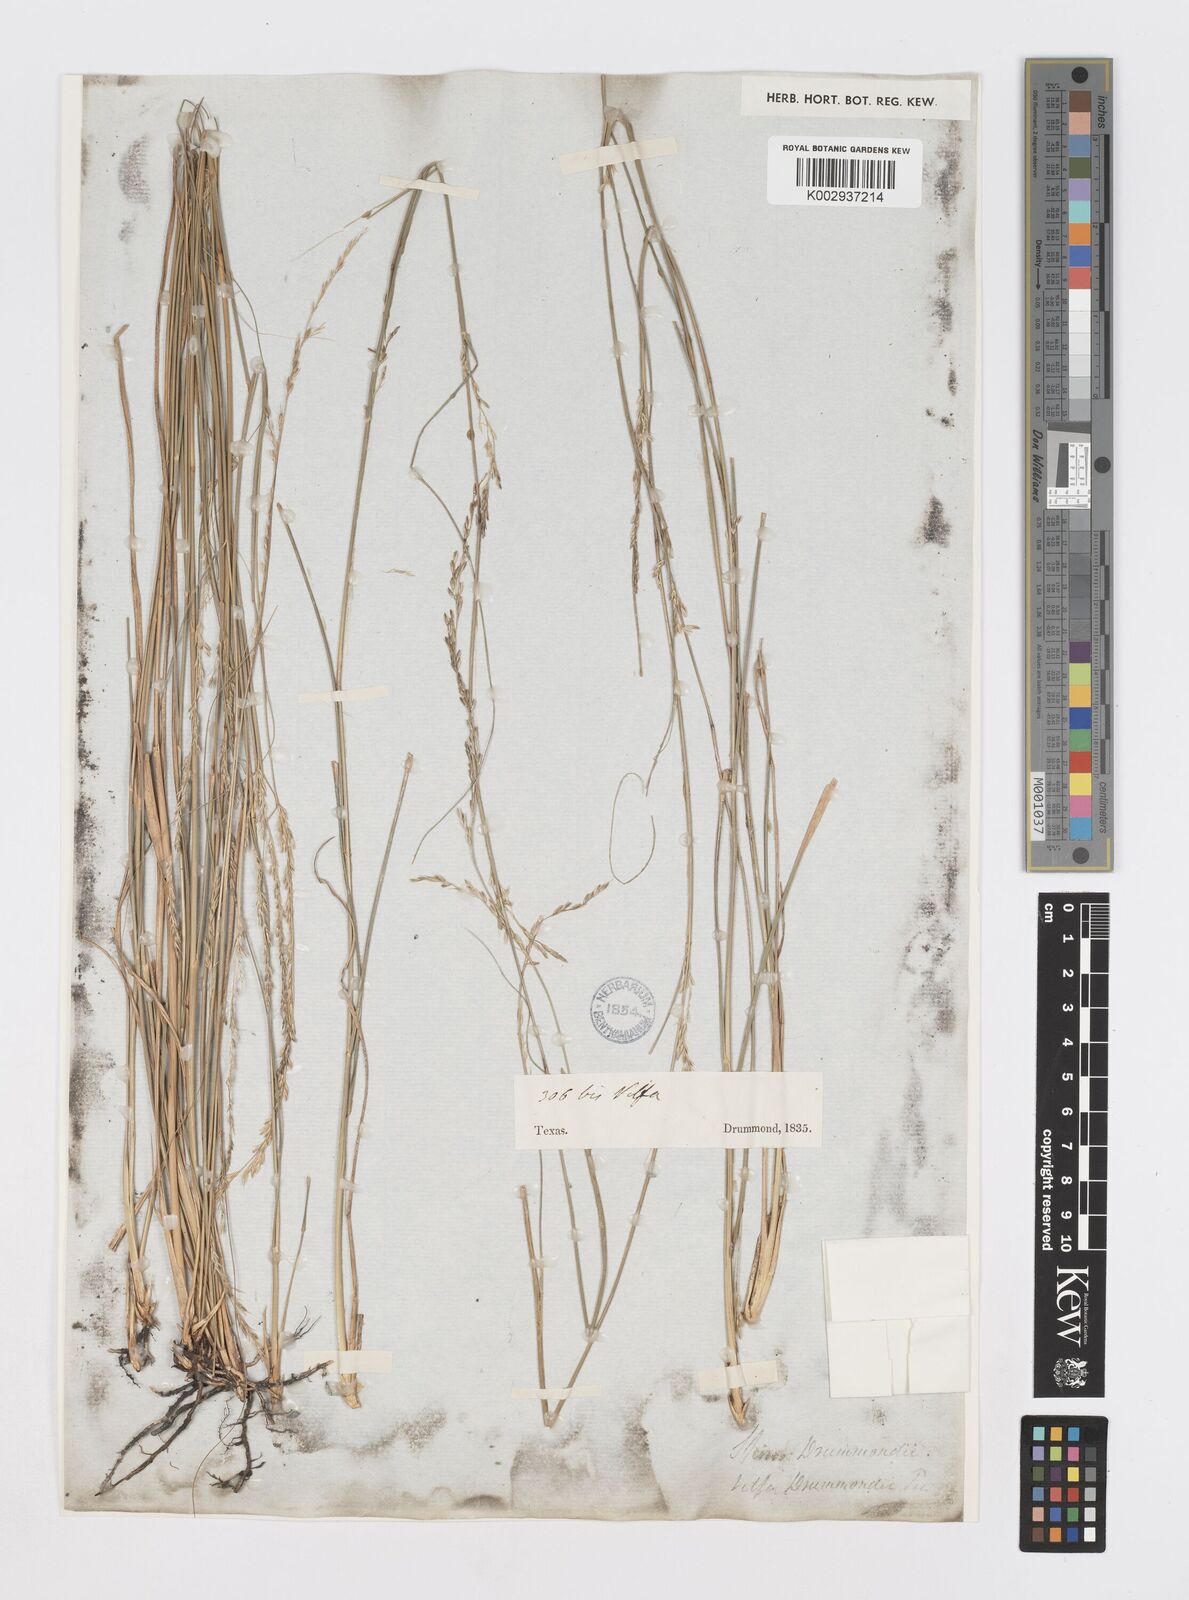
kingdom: Plantae
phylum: Tracheophyta
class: Liliopsida
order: Poales
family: Poaceae
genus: Sporobolus
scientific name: Sporobolus compositus
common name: Rough dropseed
